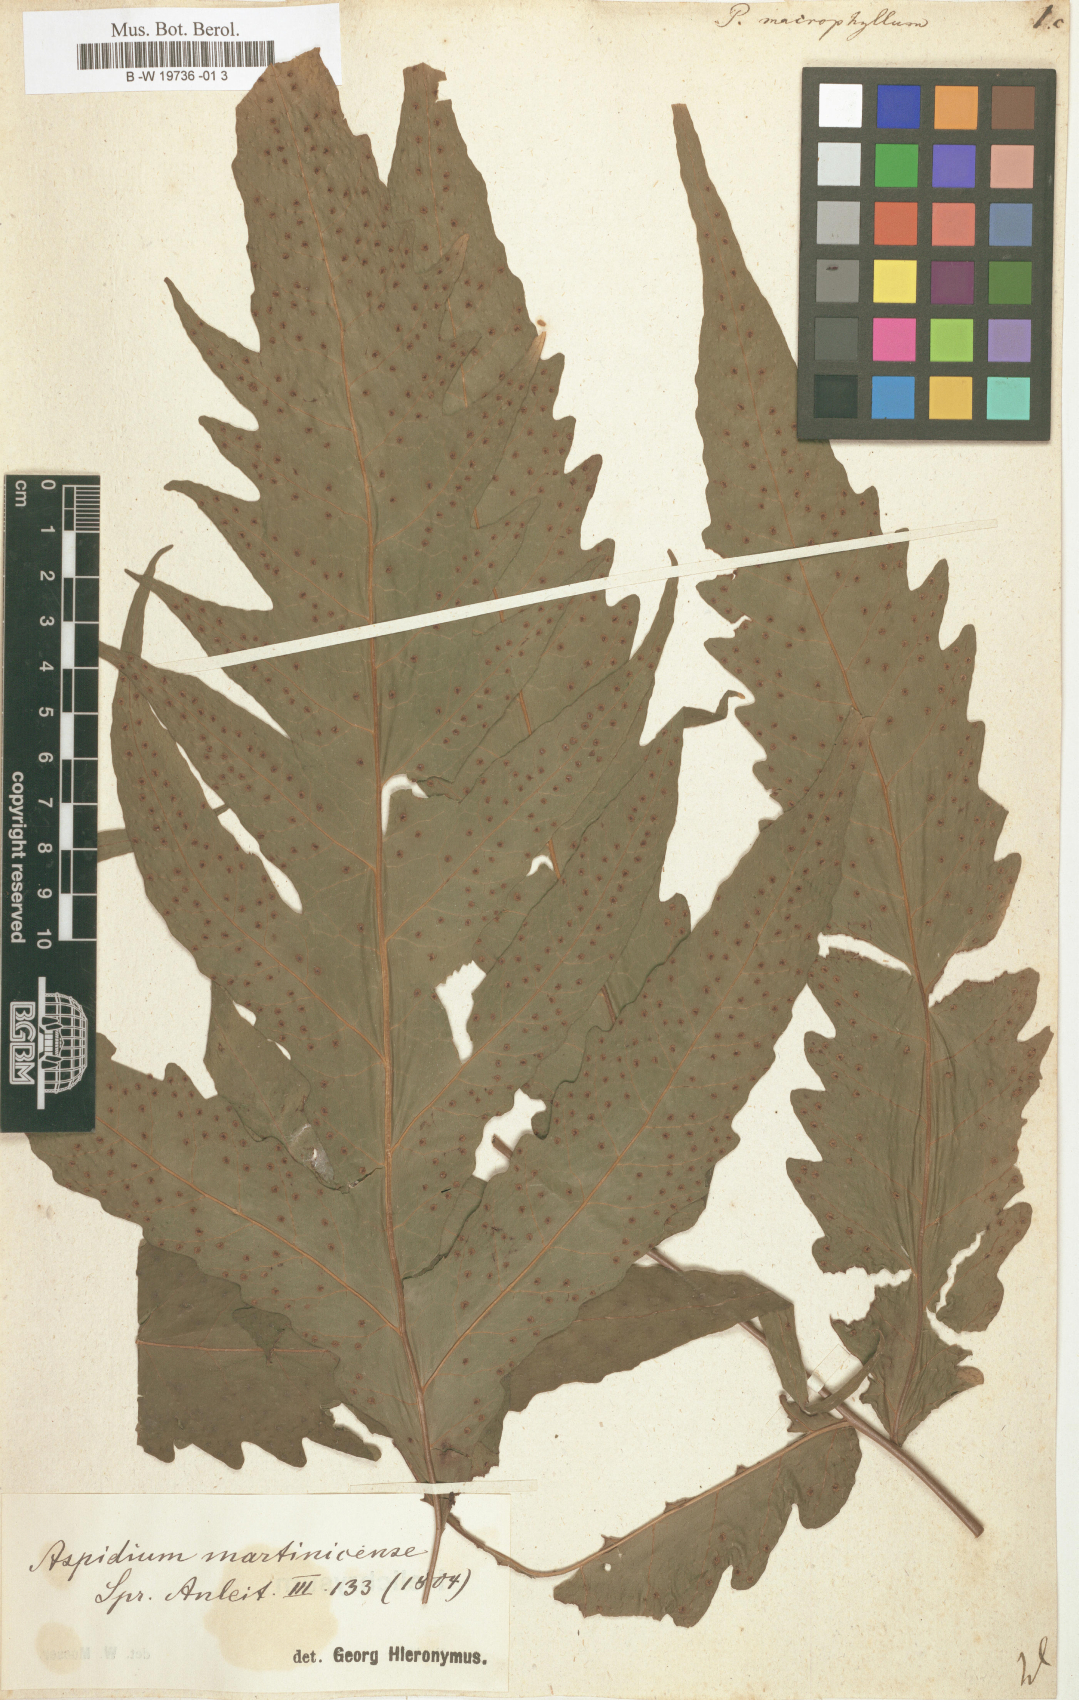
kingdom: Plantae
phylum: Tracheophyta
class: Polypodiopsida
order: Polypodiales
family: Tectariaceae
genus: Tectaria
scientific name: Tectaria incisa
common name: Incised halberd fern
